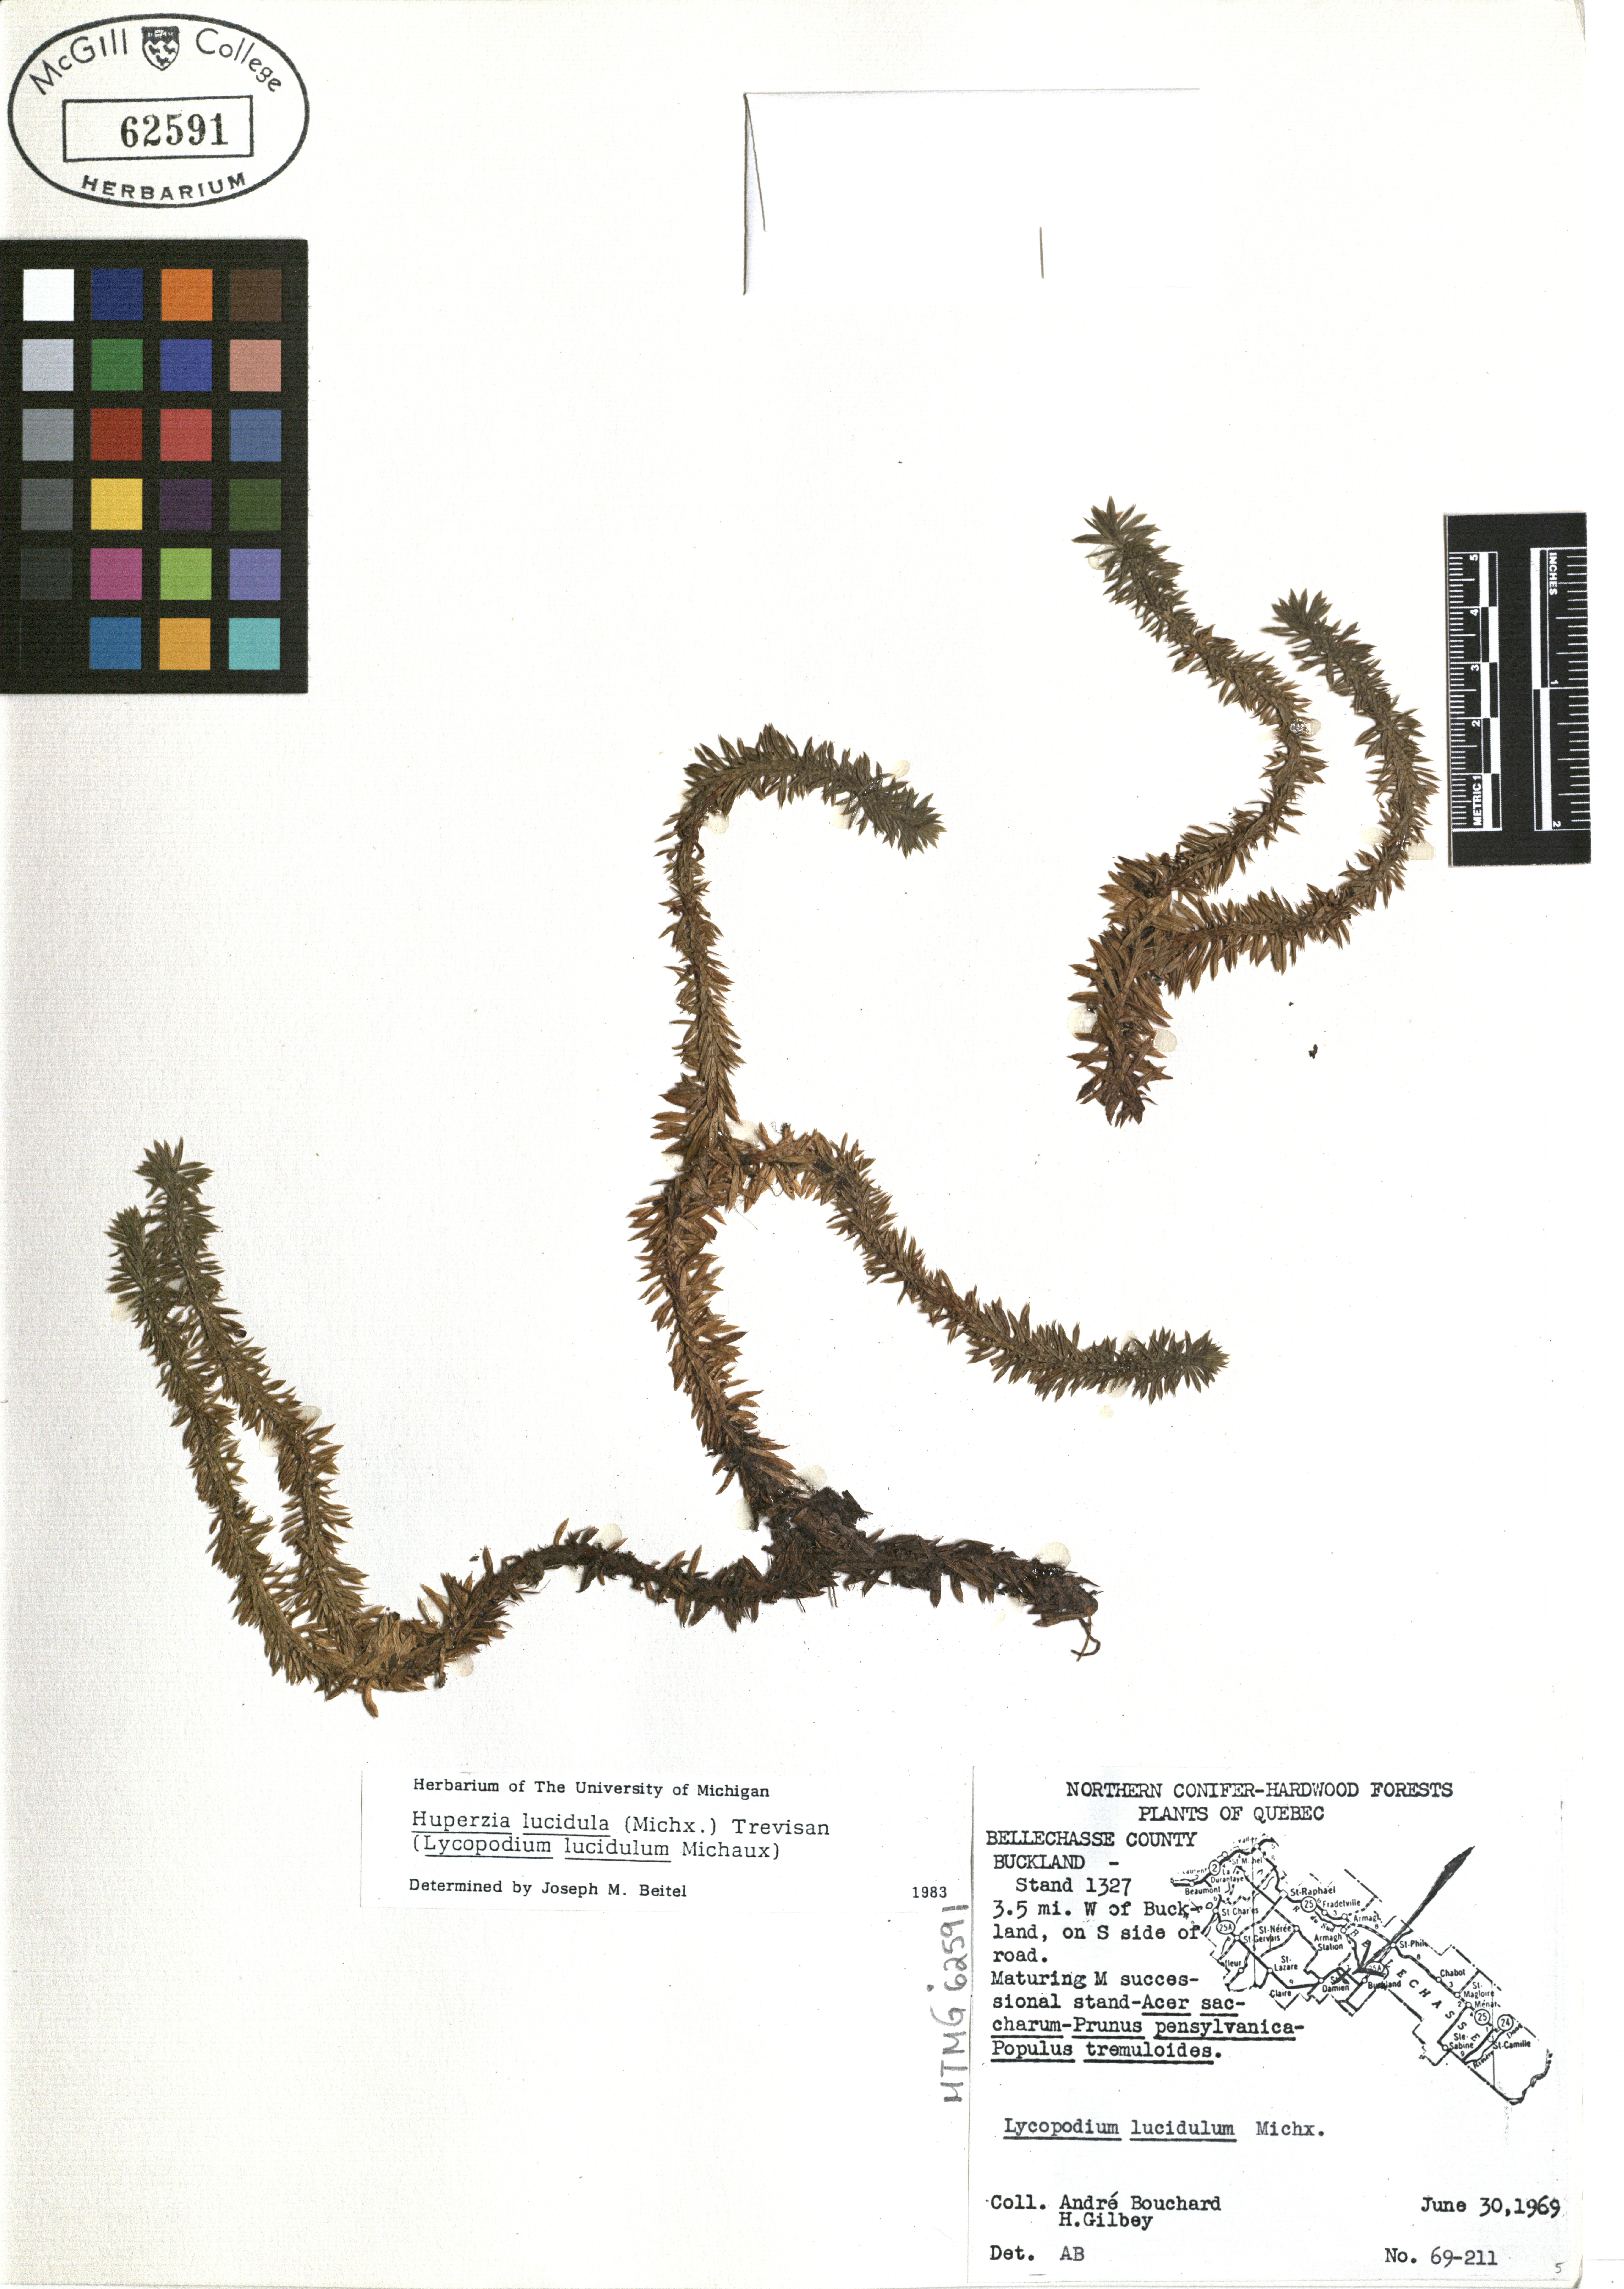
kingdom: Plantae
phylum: Tracheophyta
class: Lycopodiopsida
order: Lycopodiales
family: Lycopodiaceae
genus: Huperzia
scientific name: Huperzia lucidula
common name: Shining clubmoss
